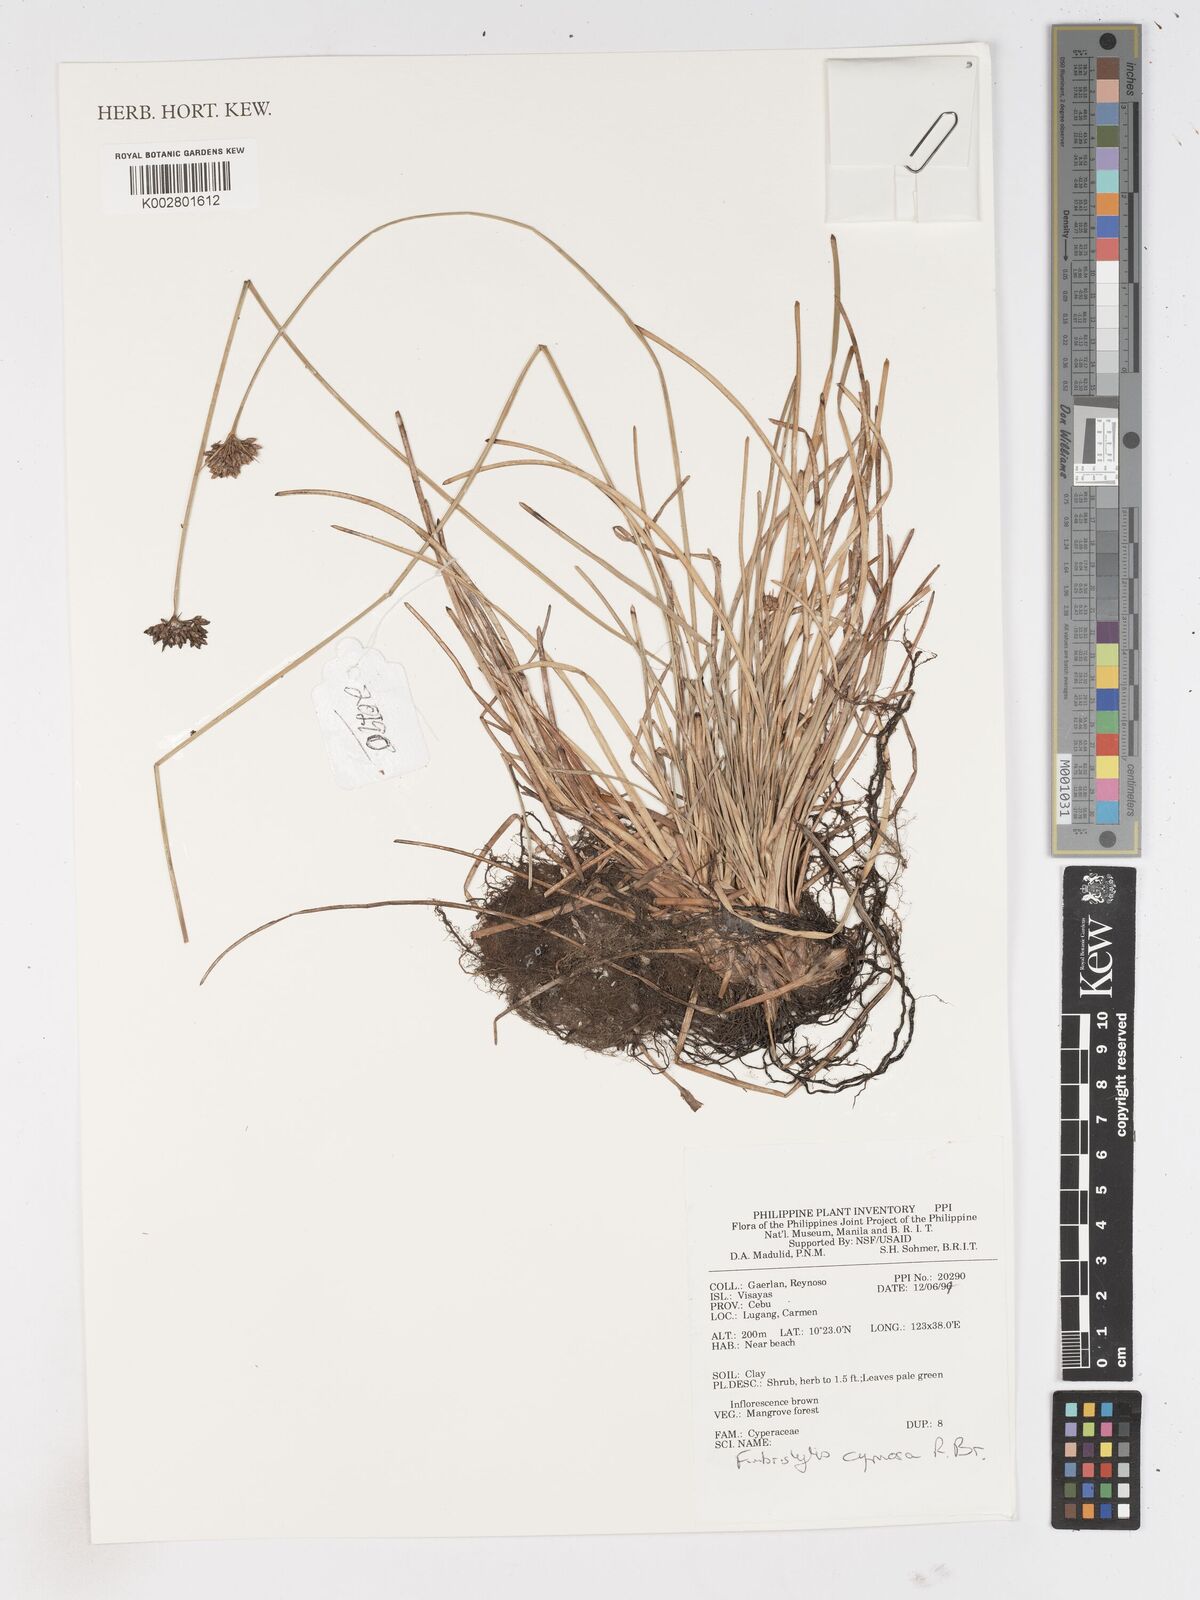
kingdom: Plantae
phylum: Tracheophyta
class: Liliopsida
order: Poales
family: Cyperaceae
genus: Fimbristylis
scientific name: Fimbristylis cymosa
